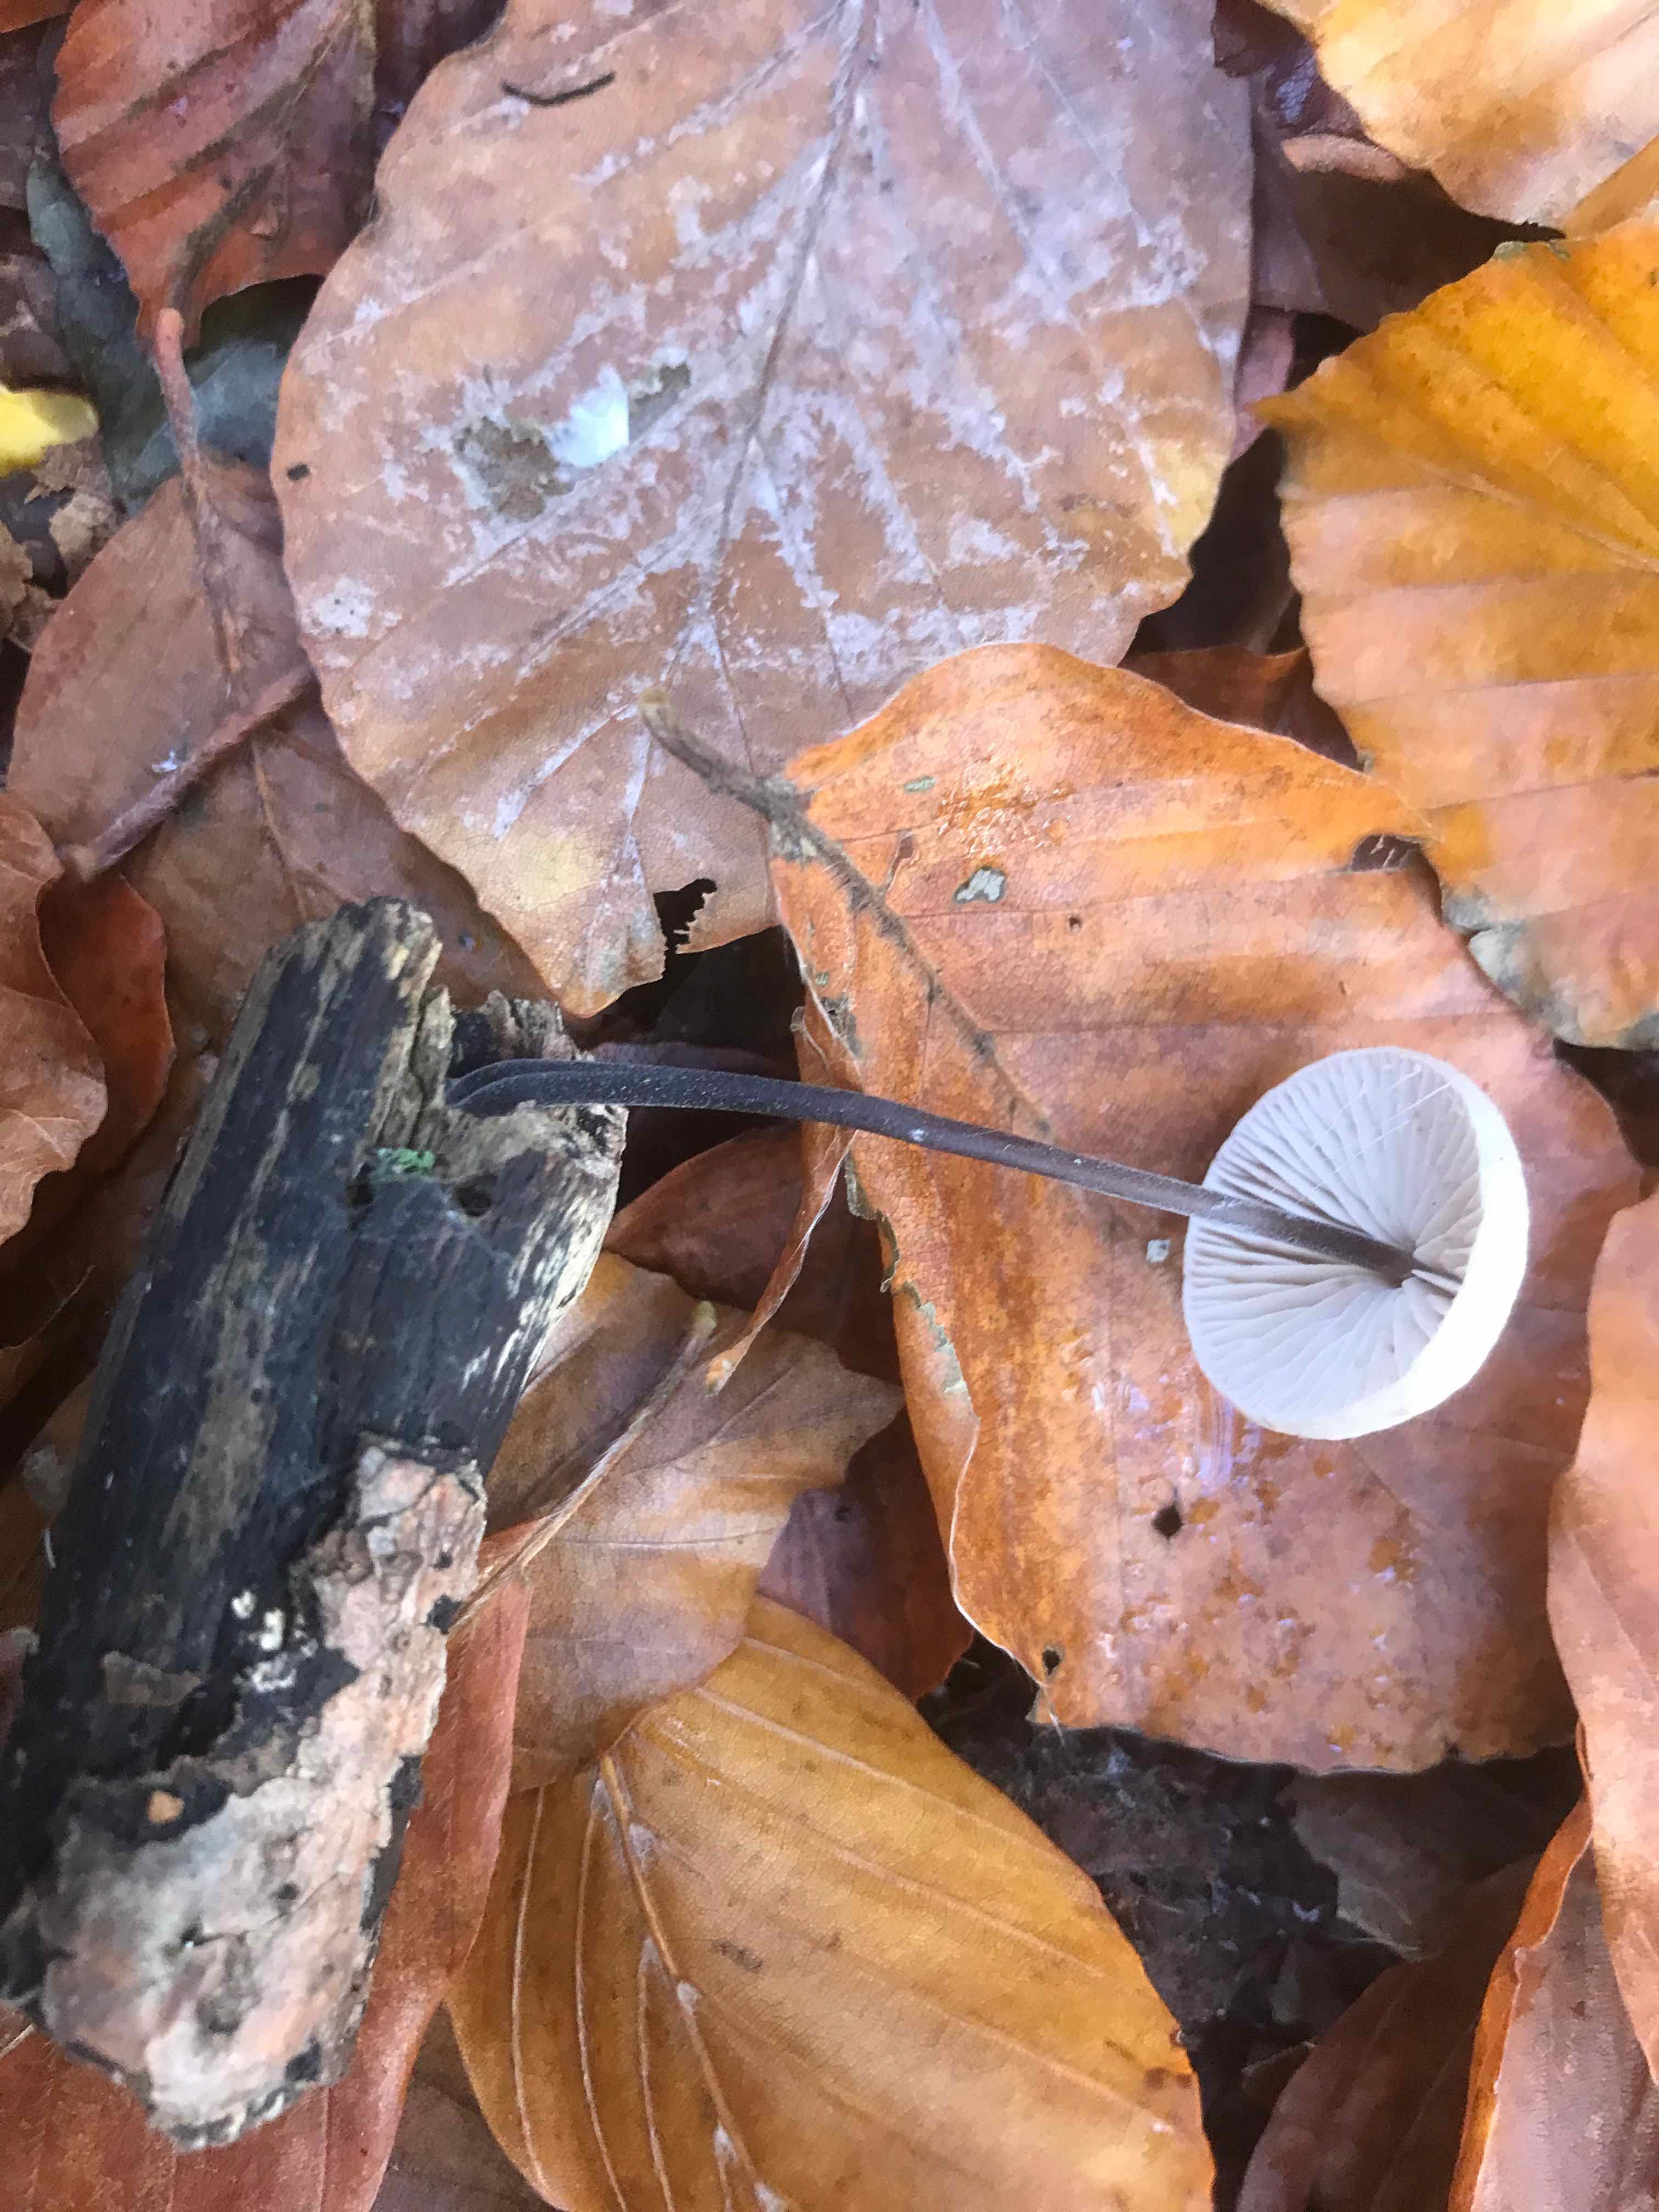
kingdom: Fungi
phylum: Basidiomycota
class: Agaricomycetes
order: Agaricales
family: Omphalotaceae
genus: Mycetinis
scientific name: Mycetinis alliaceus
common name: stor løghat
